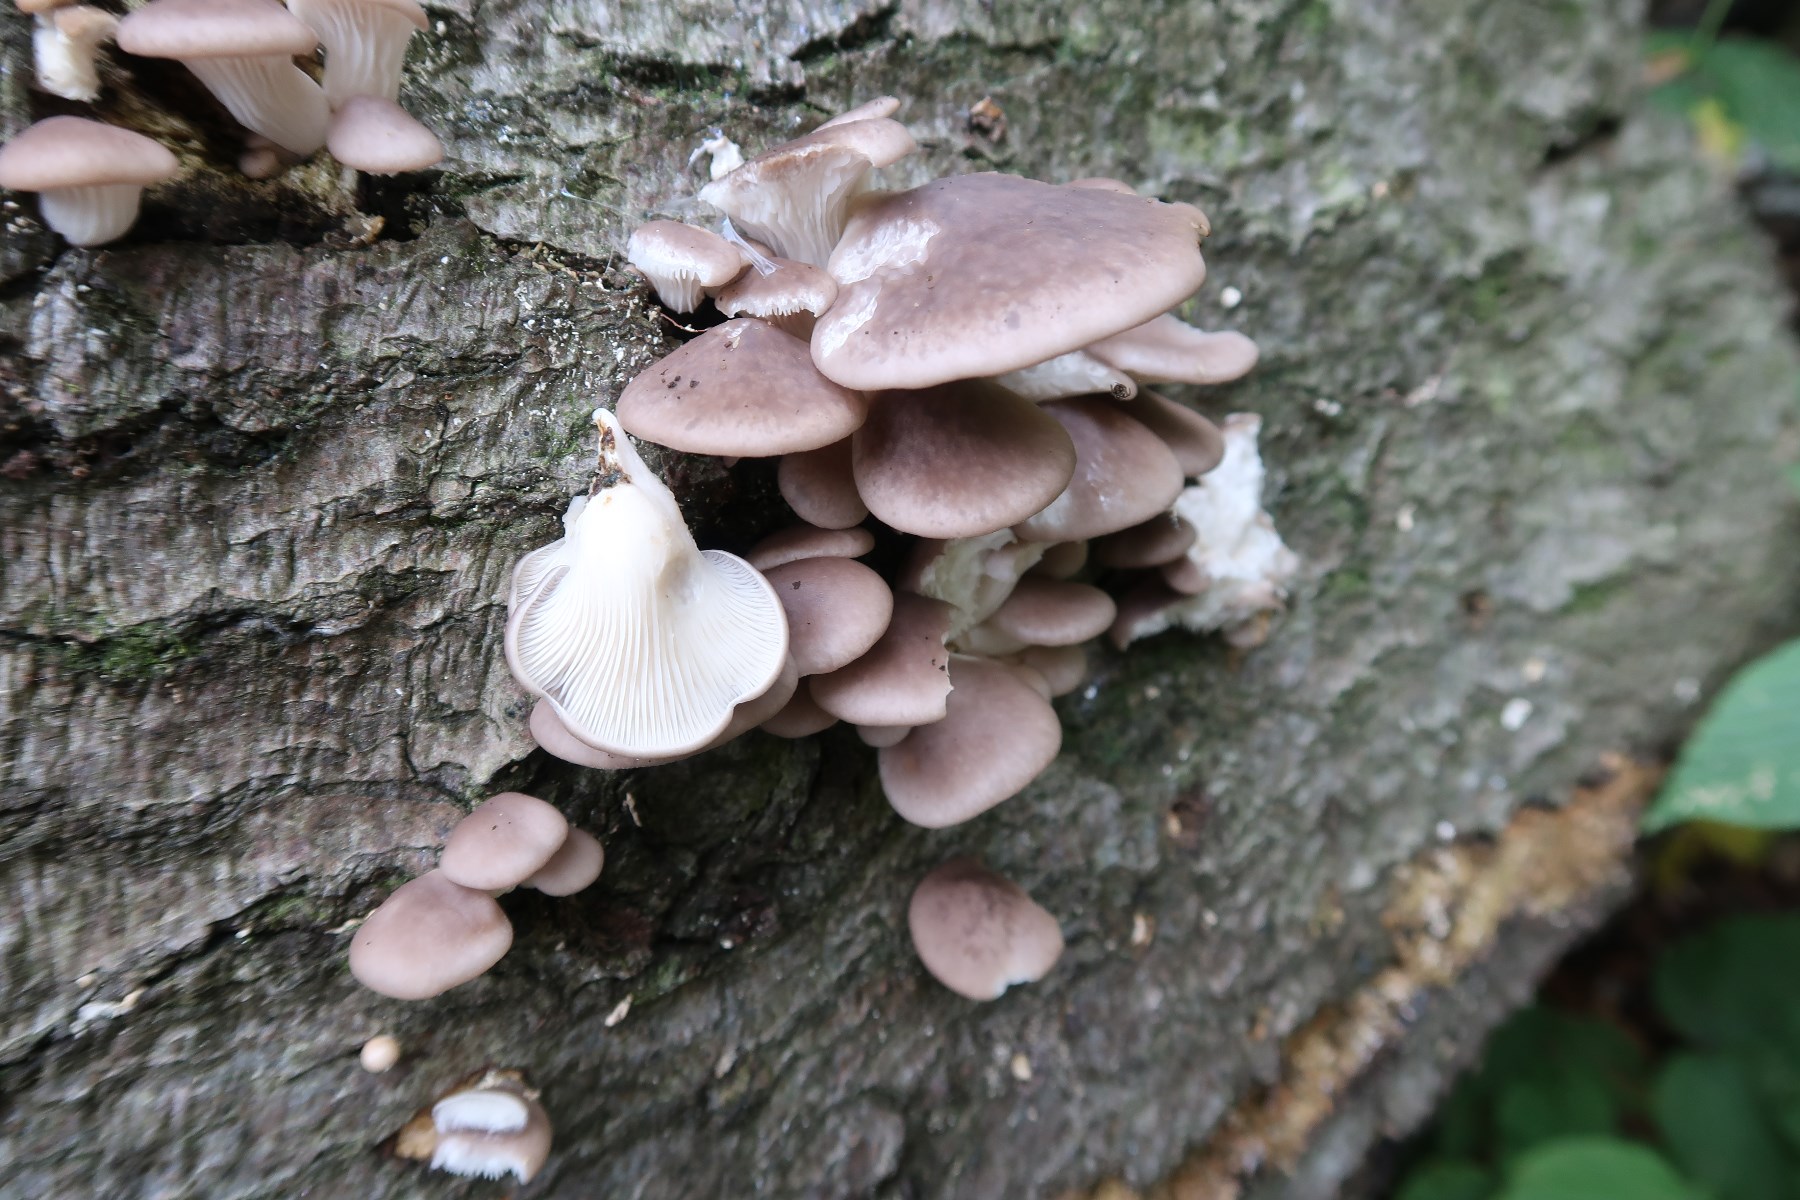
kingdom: Fungi
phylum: Basidiomycota
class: Agaricomycetes
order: Agaricales
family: Pleurotaceae
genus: Pleurotus
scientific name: Pleurotus ostreatus
